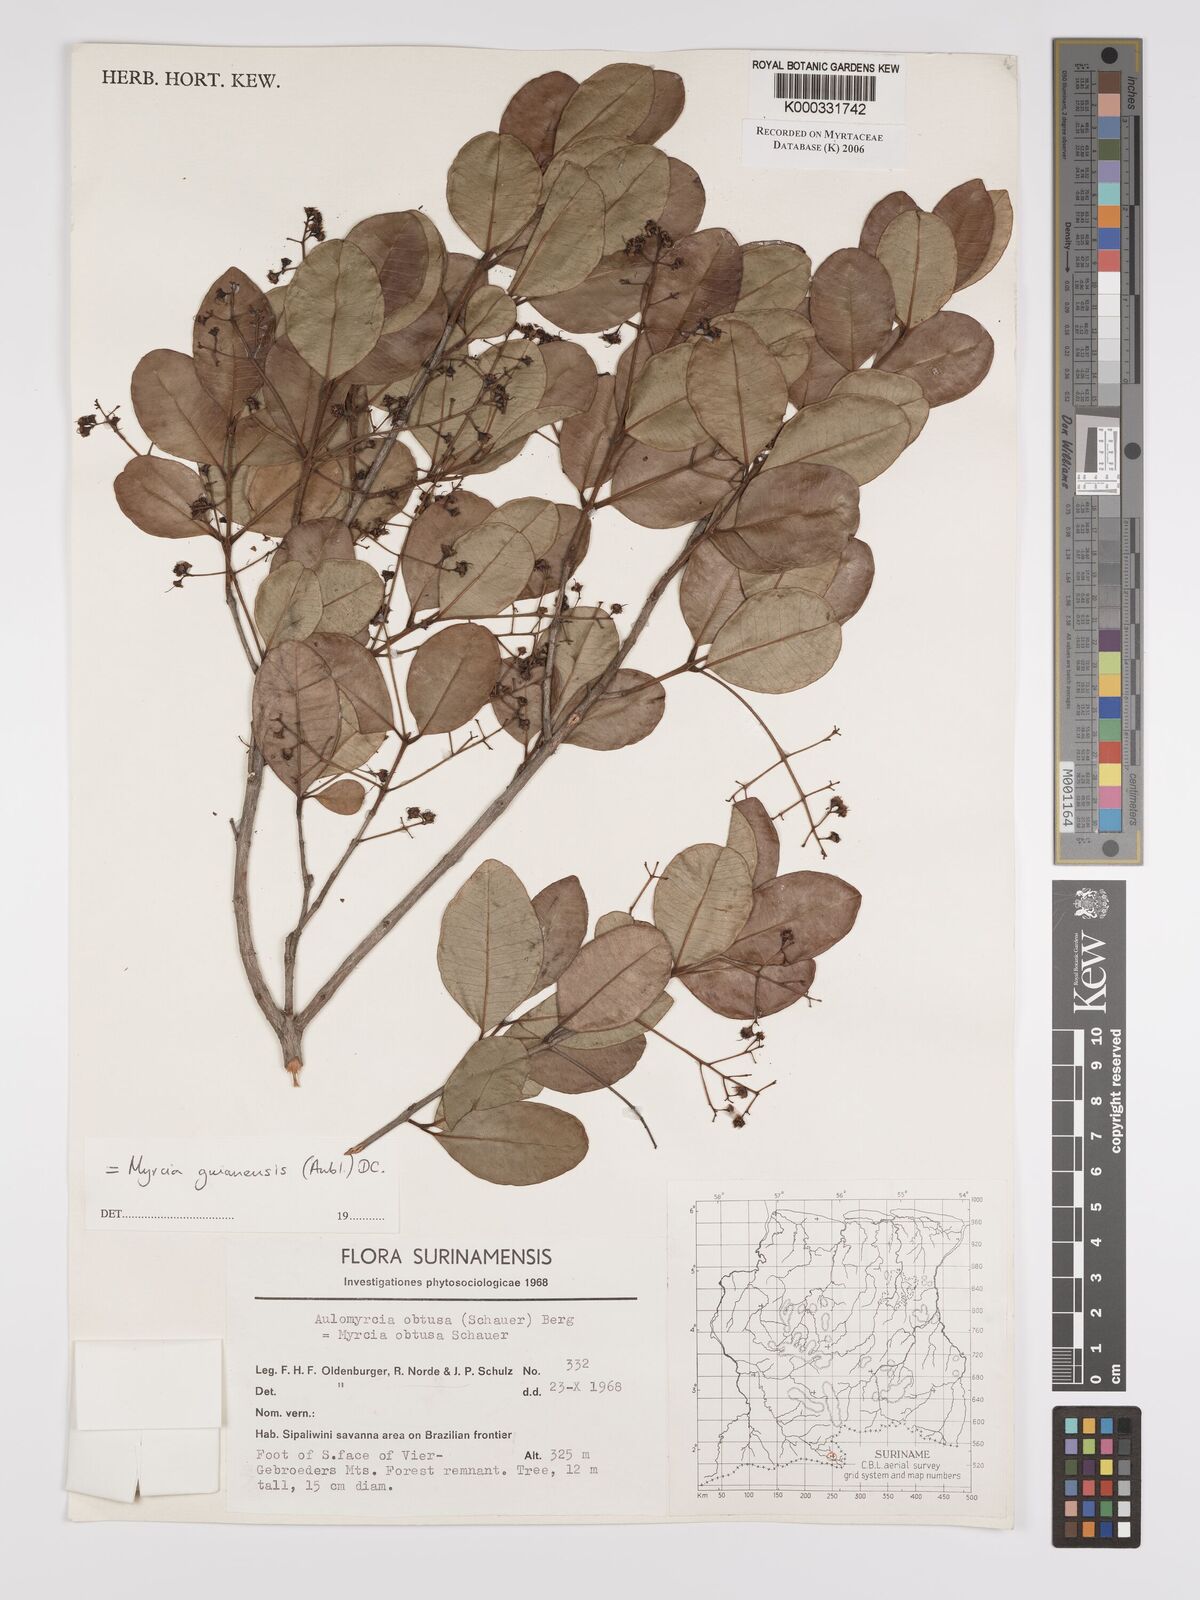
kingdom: Plantae
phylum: Tracheophyta
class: Magnoliopsida
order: Myrtales
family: Myrtaceae
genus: Myrcia
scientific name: Myrcia guianensis
